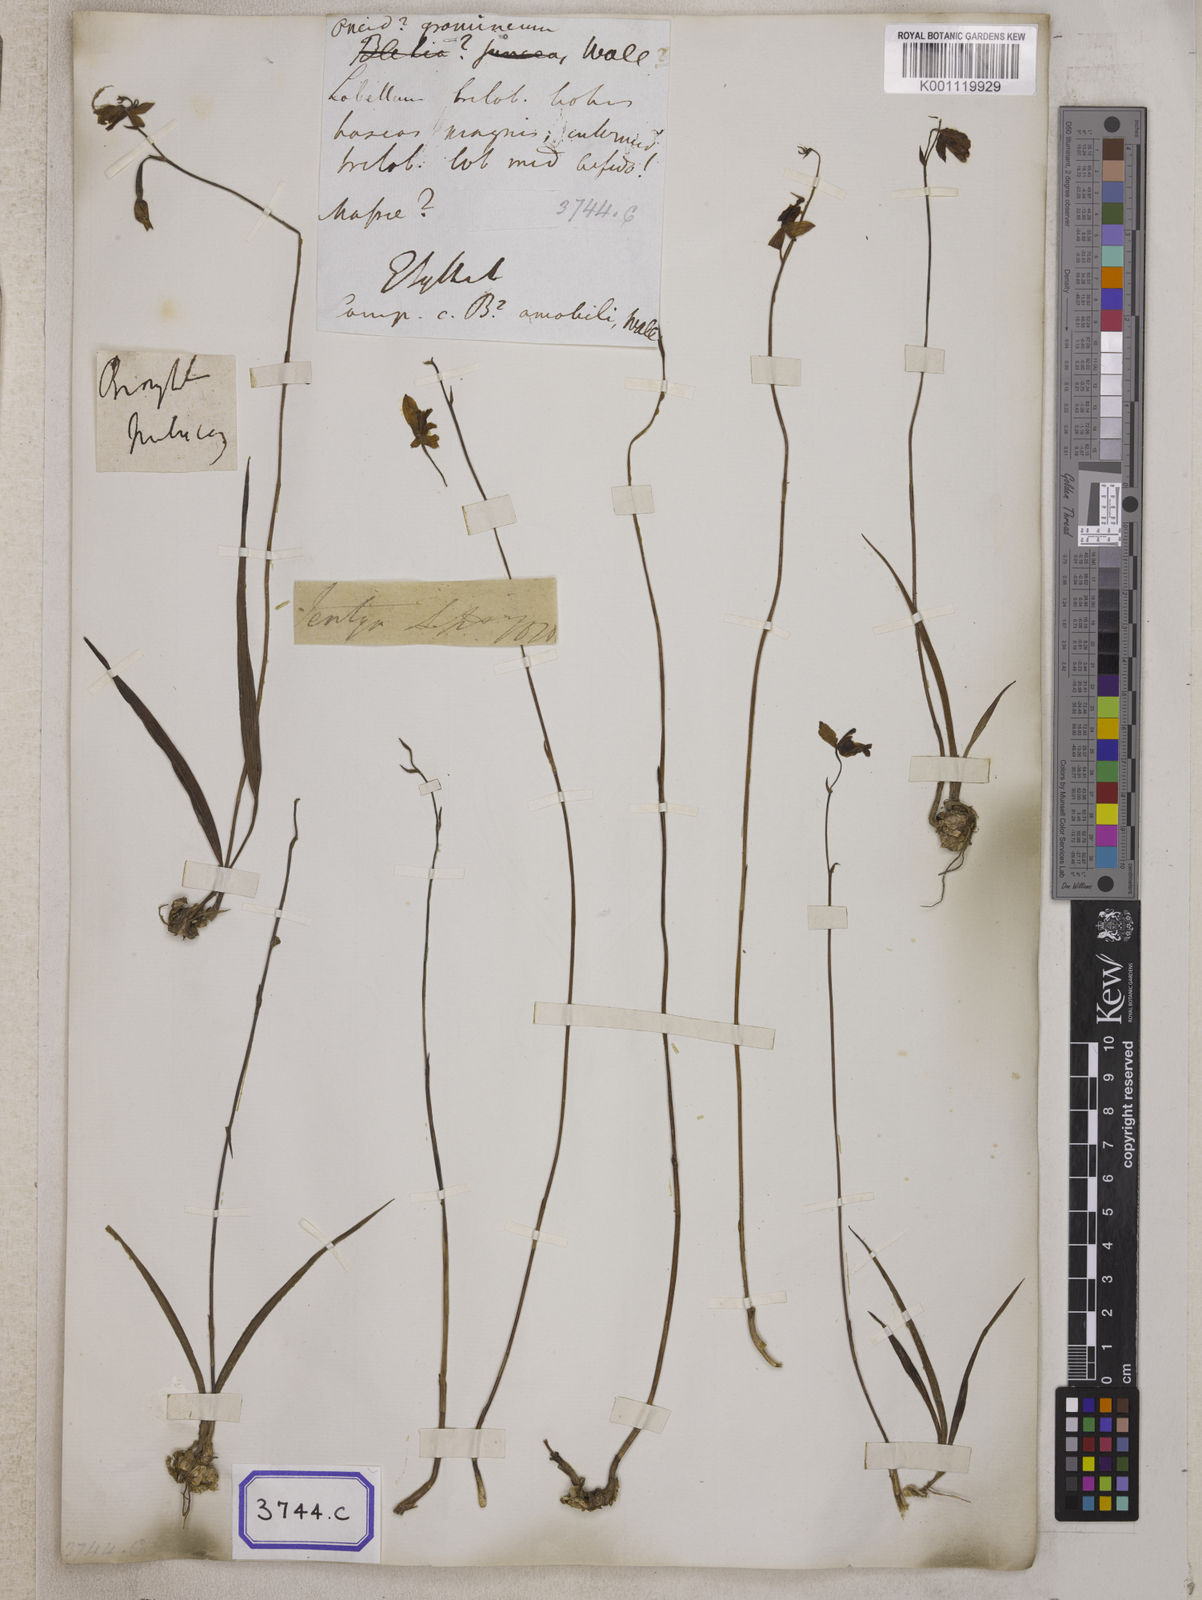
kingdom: Plantae
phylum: Tracheophyta
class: Liliopsida
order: Asparagales
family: Orchidaceae
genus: Spathoglottis
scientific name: Spathoglottis pubescens
